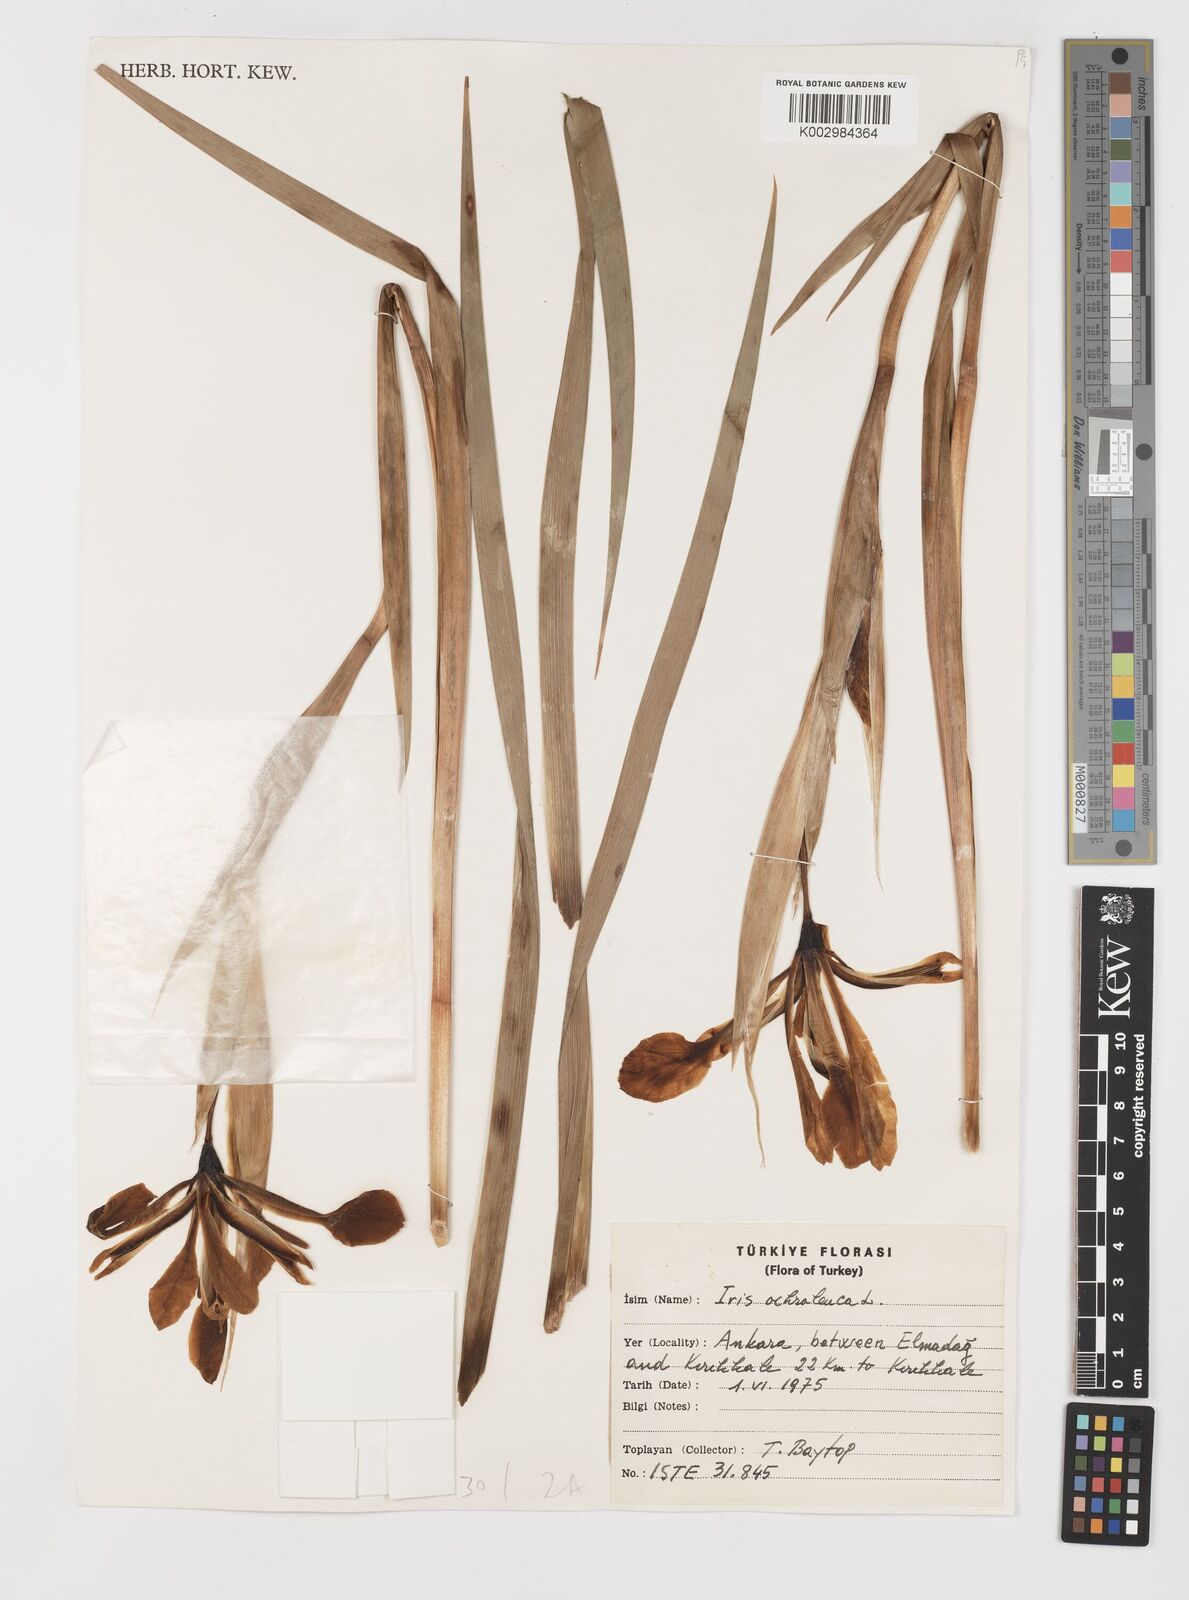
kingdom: Plantae
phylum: Tracheophyta
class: Liliopsida
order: Asparagales
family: Iridaceae
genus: Iris
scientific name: Iris orientalis
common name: Turkish iris
